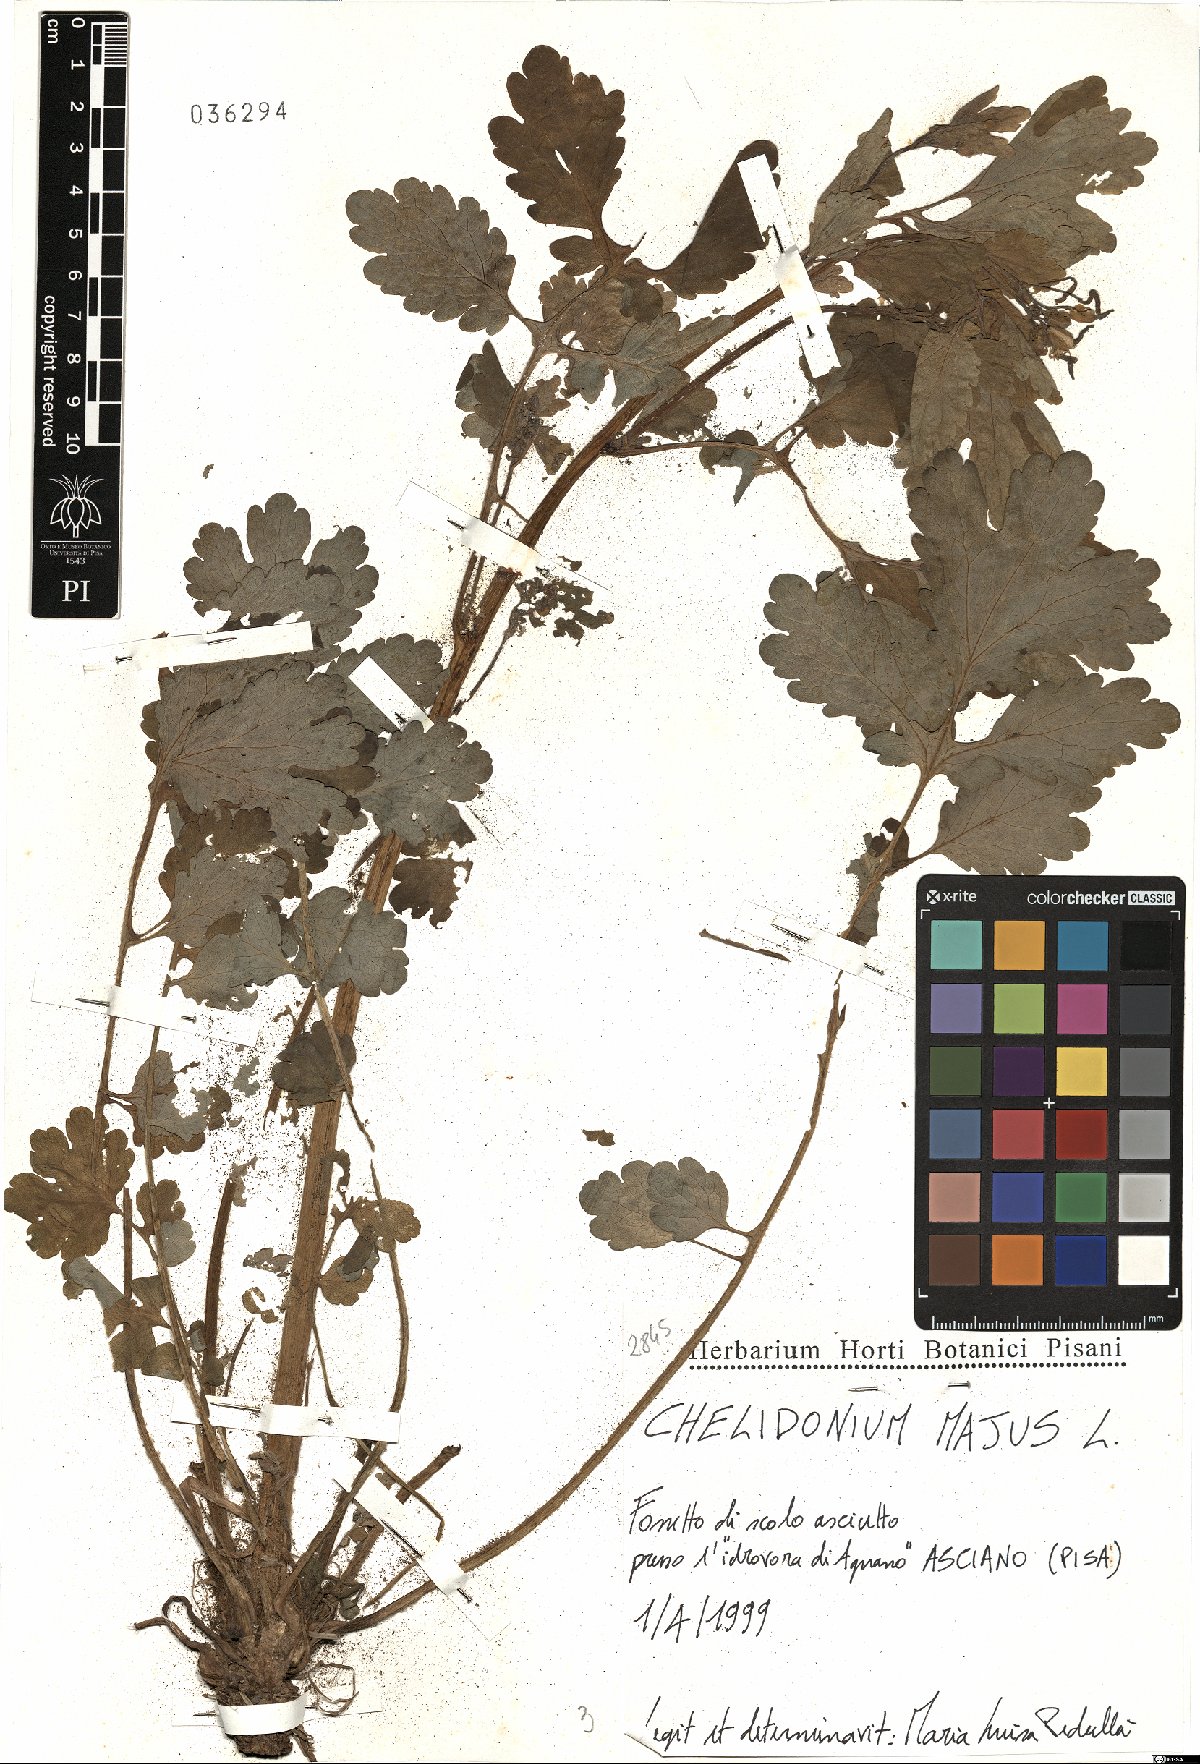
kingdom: Plantae
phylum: Tracheophyta
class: Magnoliopsida
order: Ranunculales
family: Papaveraceae
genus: Chelidonium
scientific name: Chelidonium majus
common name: Greater celandine
